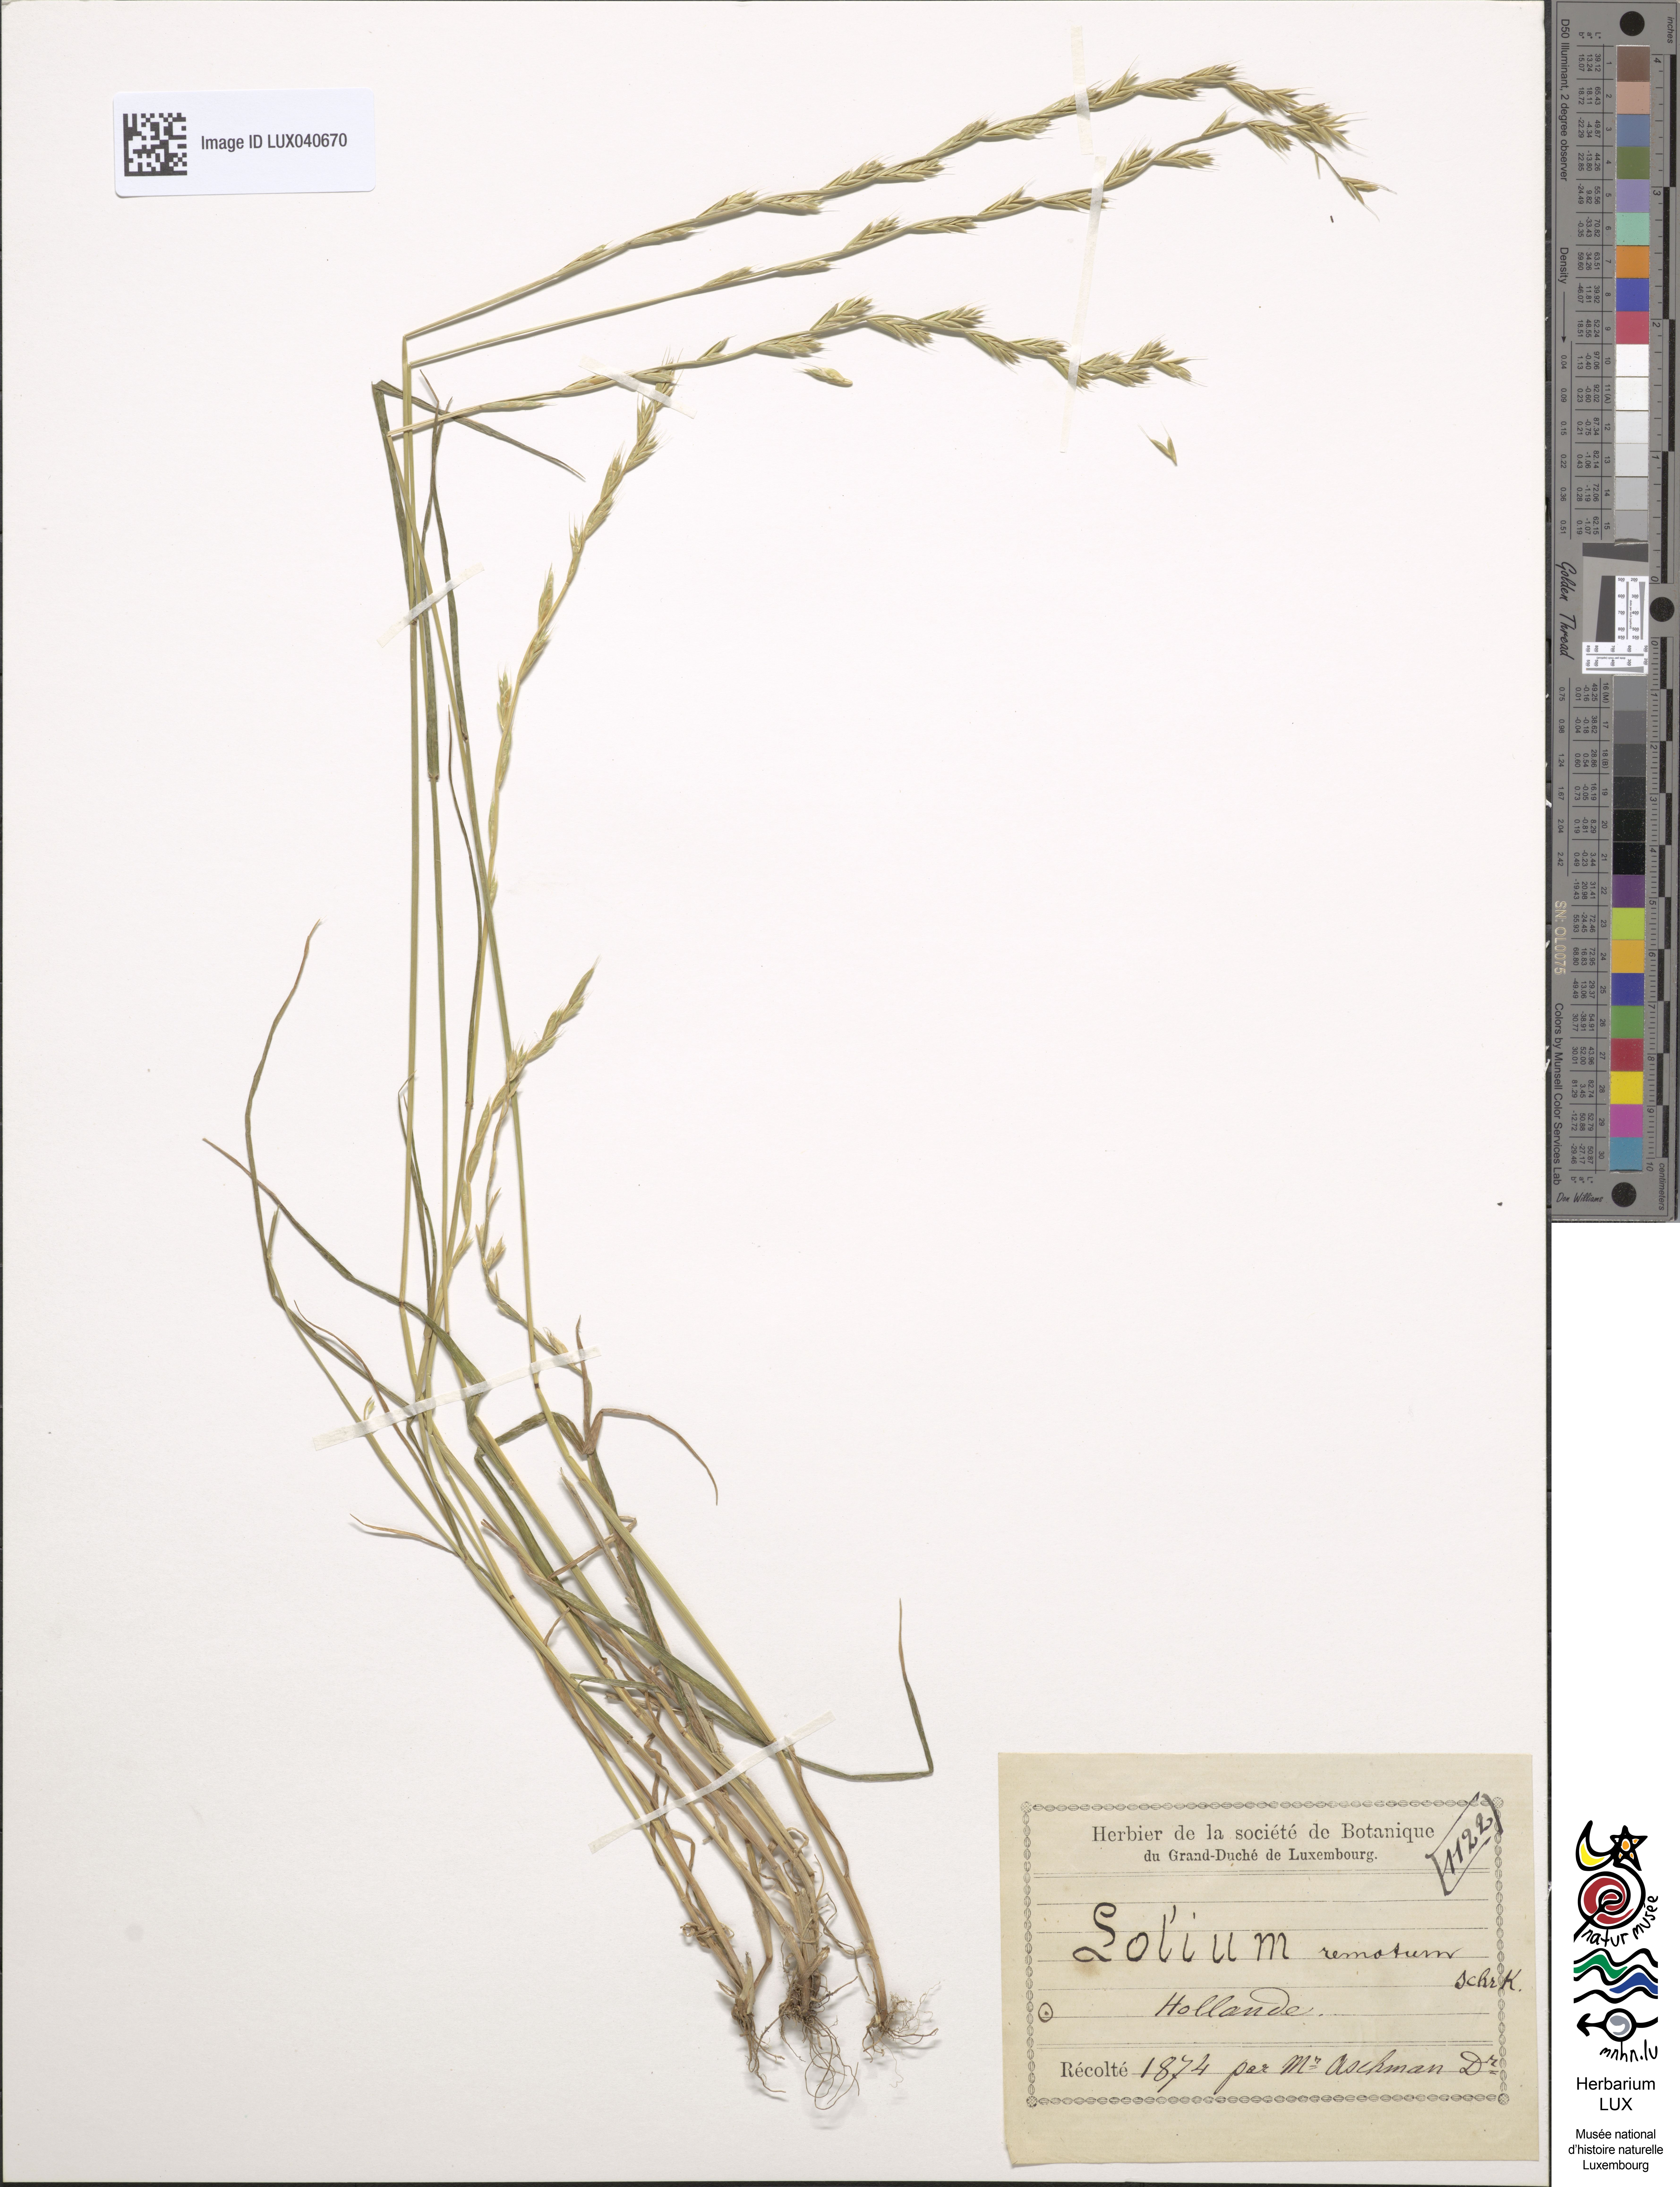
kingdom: Plantae
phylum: Tracheophyta
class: Liliopsida
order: Poales
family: Poaceae
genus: Lolium
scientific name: Lolium remotum
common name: Flaxfield rye-grass
